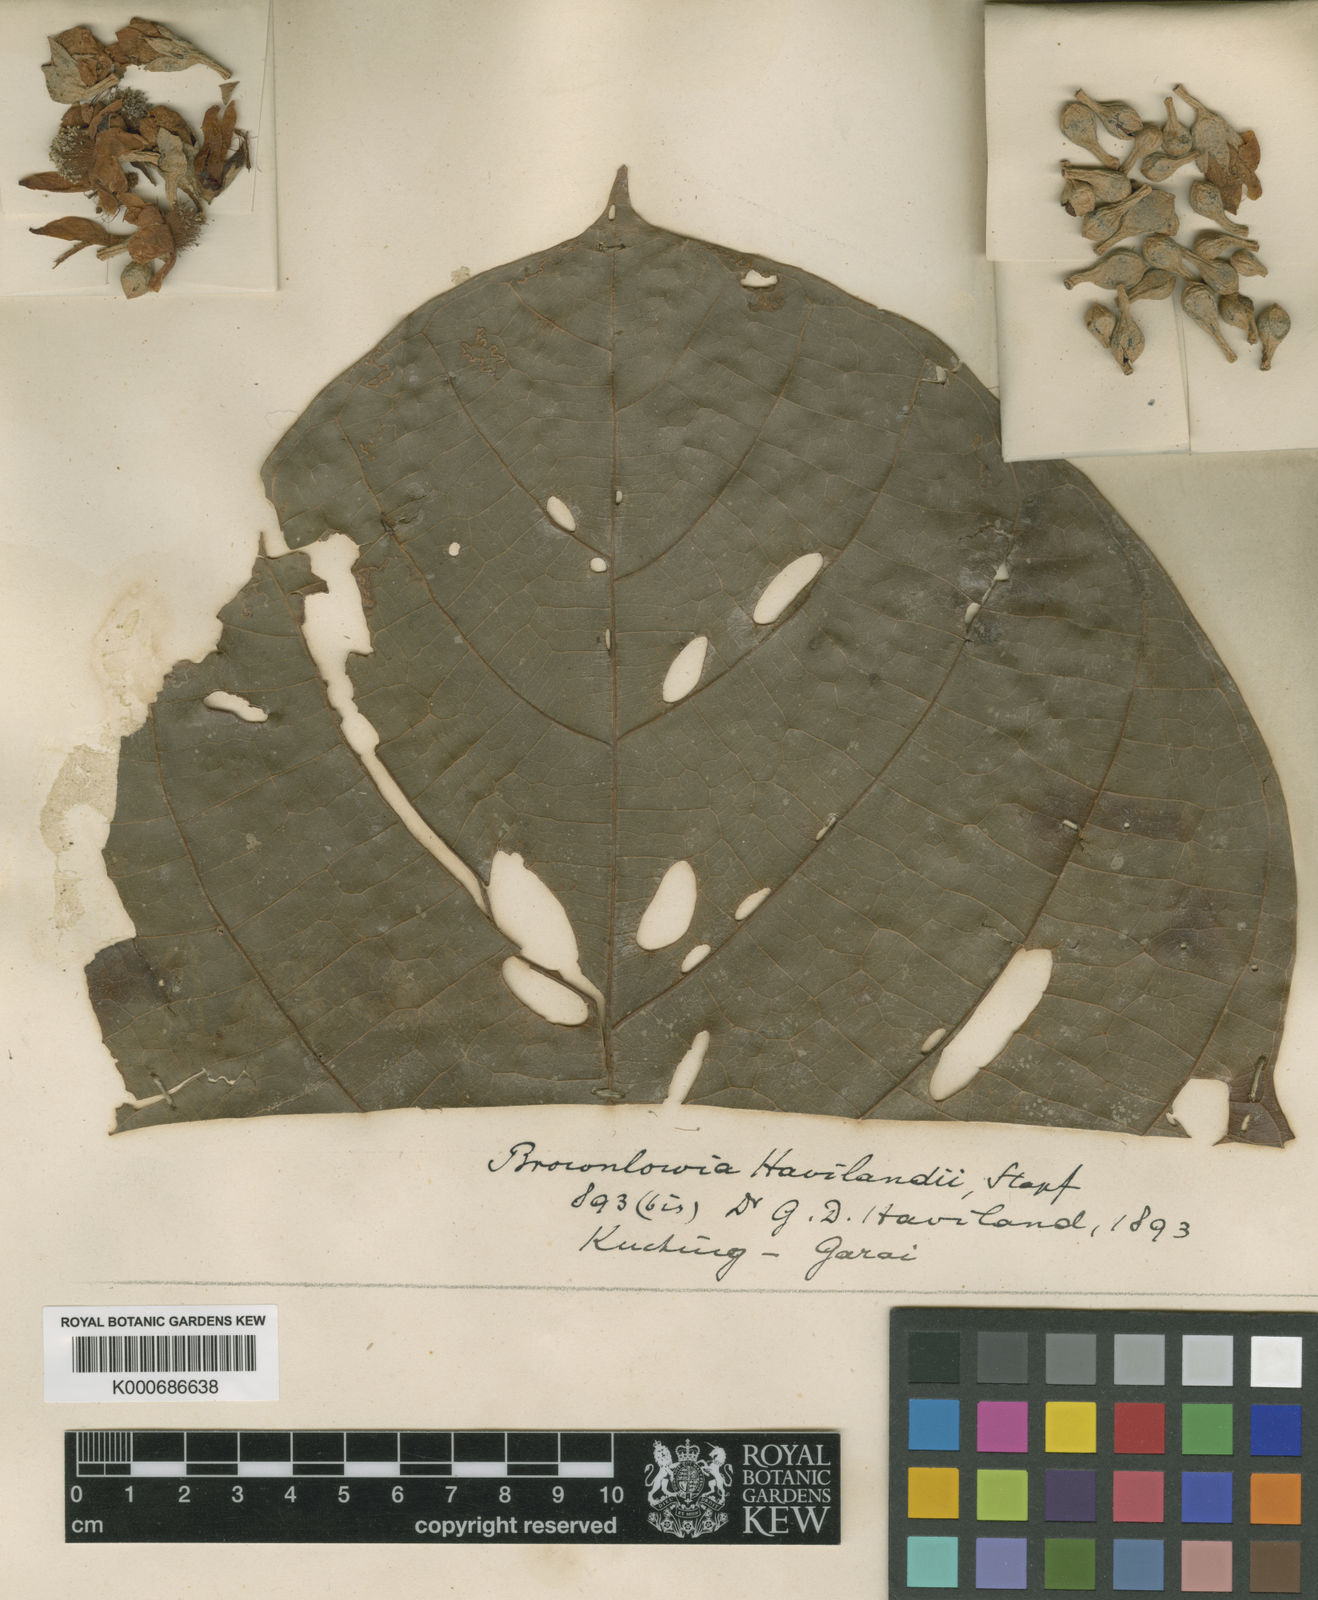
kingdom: Plantae
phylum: Tracheophyta
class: Magnoliopsida
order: Malvales
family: Malvaceae
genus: Brownlowia
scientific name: Brownlowia havilandii
